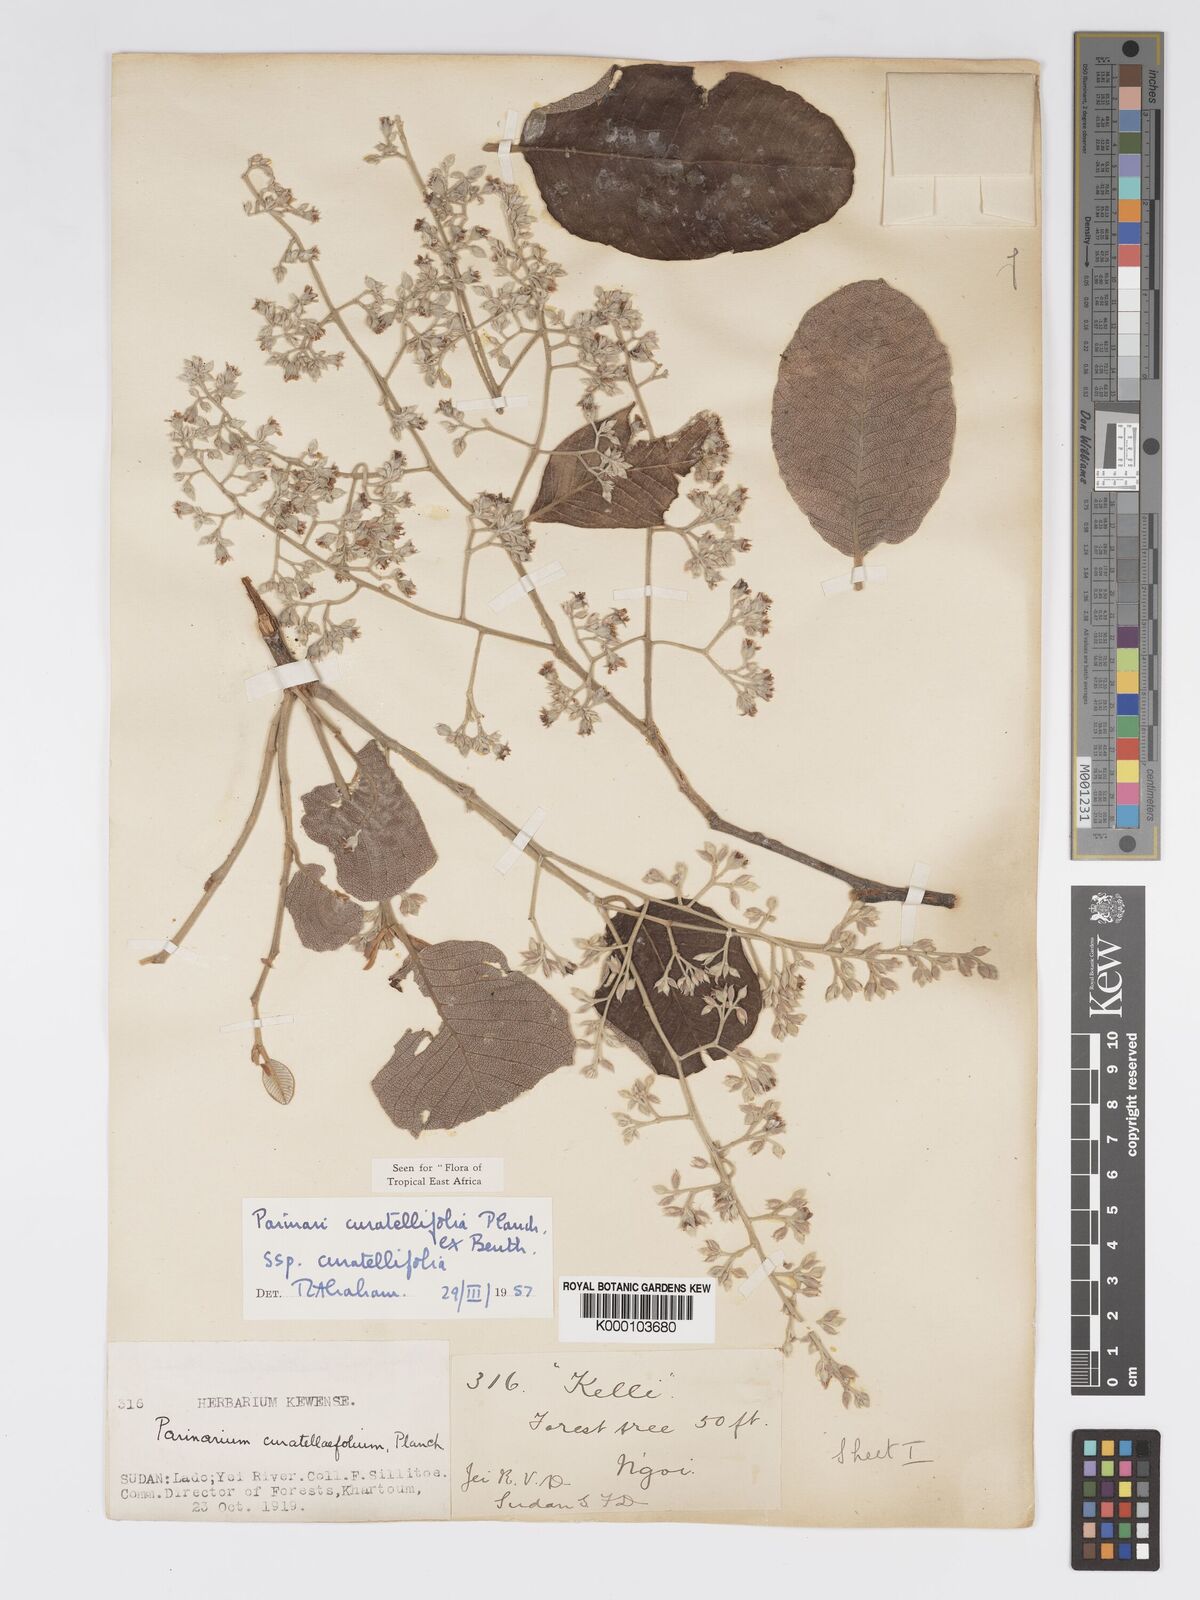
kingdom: Plantae
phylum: Tracheophyta
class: Magnoliopsida
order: Malpighiales
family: Chrysobalanaceae
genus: Parinari
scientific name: Parinari curatellifolia
